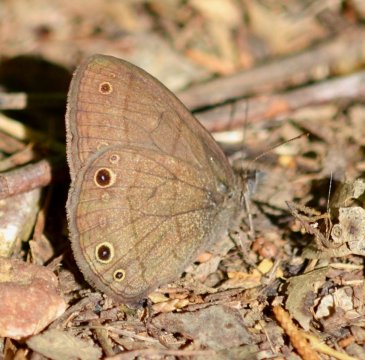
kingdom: Animalia
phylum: Arthropoda
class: Insecta
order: Lepidoptera
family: Nymphalidae
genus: Hermeuptychia
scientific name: Hermeuptychia hermes
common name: Carolina Satyr
